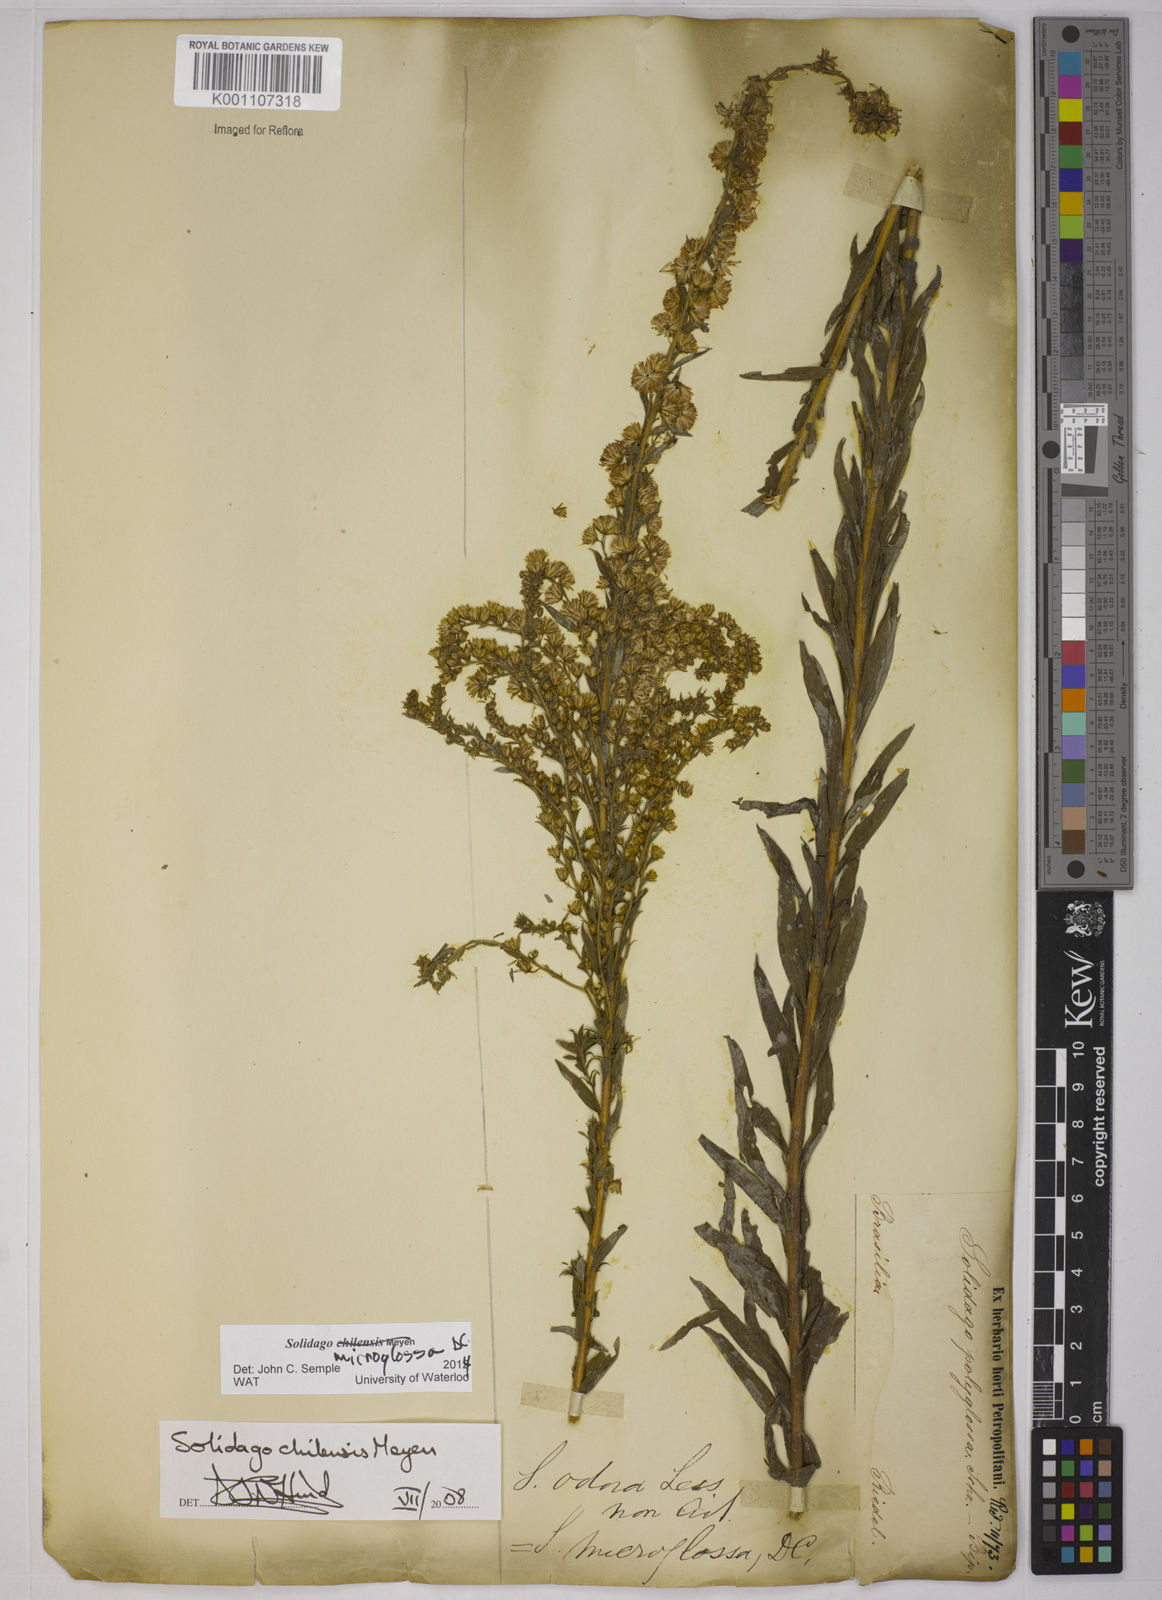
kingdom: Plantae
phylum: Tracheophyta
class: Magnoliopsida
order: Asterales
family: Asteraceae
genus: Solidago
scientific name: Solidago chilensis
